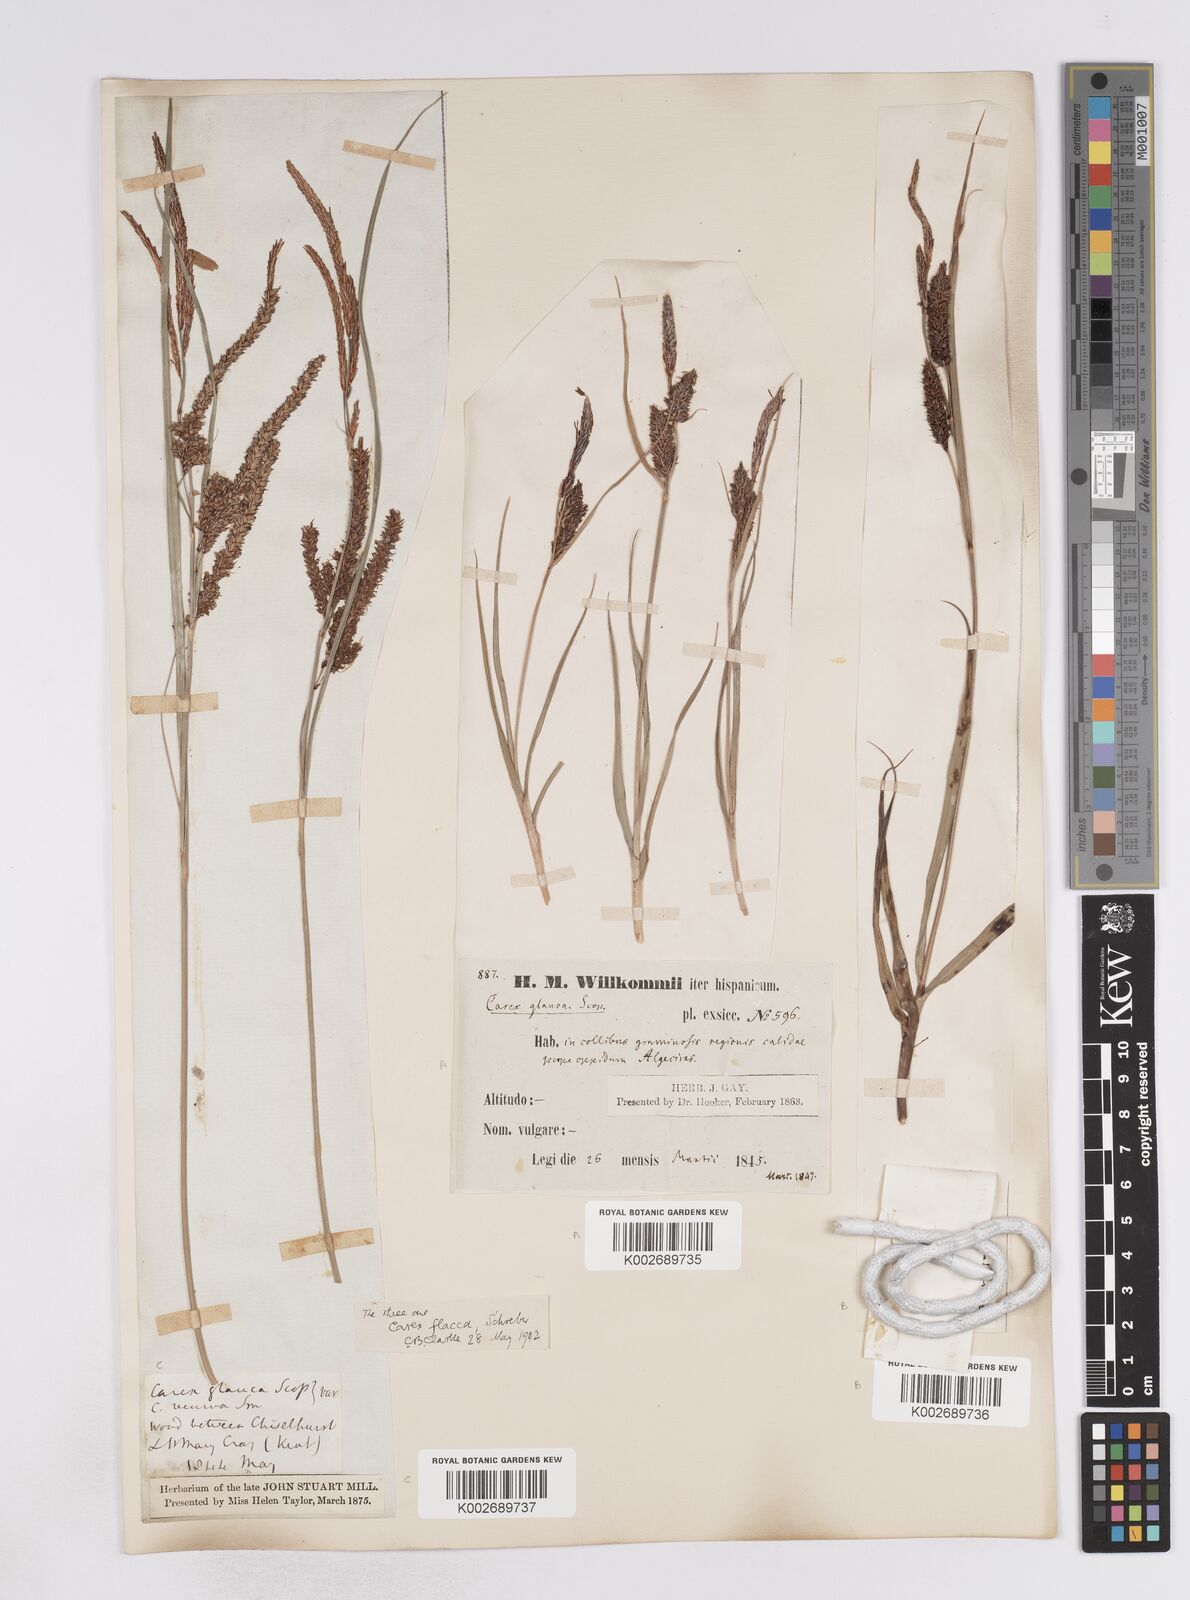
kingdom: Plantae
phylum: Tracheophyta
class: Liliopsida
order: Poales
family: Cyperaceae
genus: Carex
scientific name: Carex flacca
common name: Glaucous sedge
